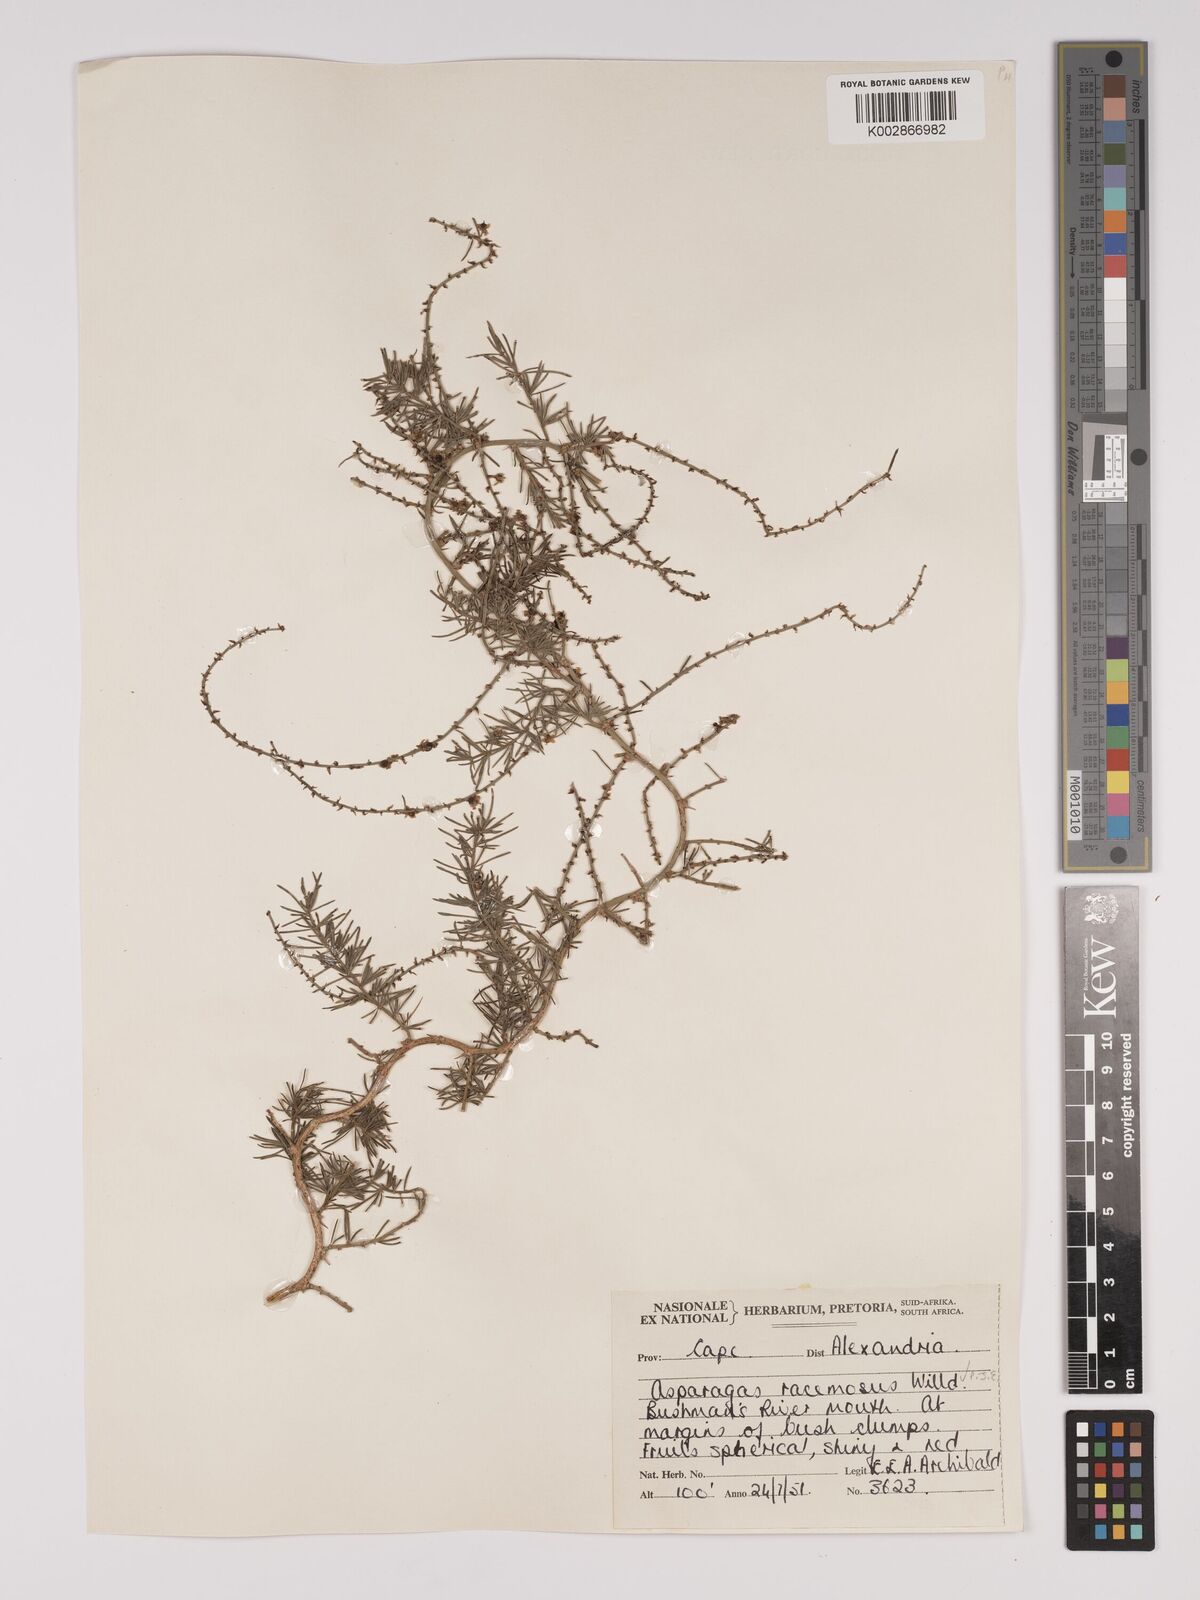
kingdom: Plantae
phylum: Tracheophyta
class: Liliopsida
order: Asparagales
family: Asparagaceae
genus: Asparagus
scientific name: Asparagus racemosus
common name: Asparagus-fern
